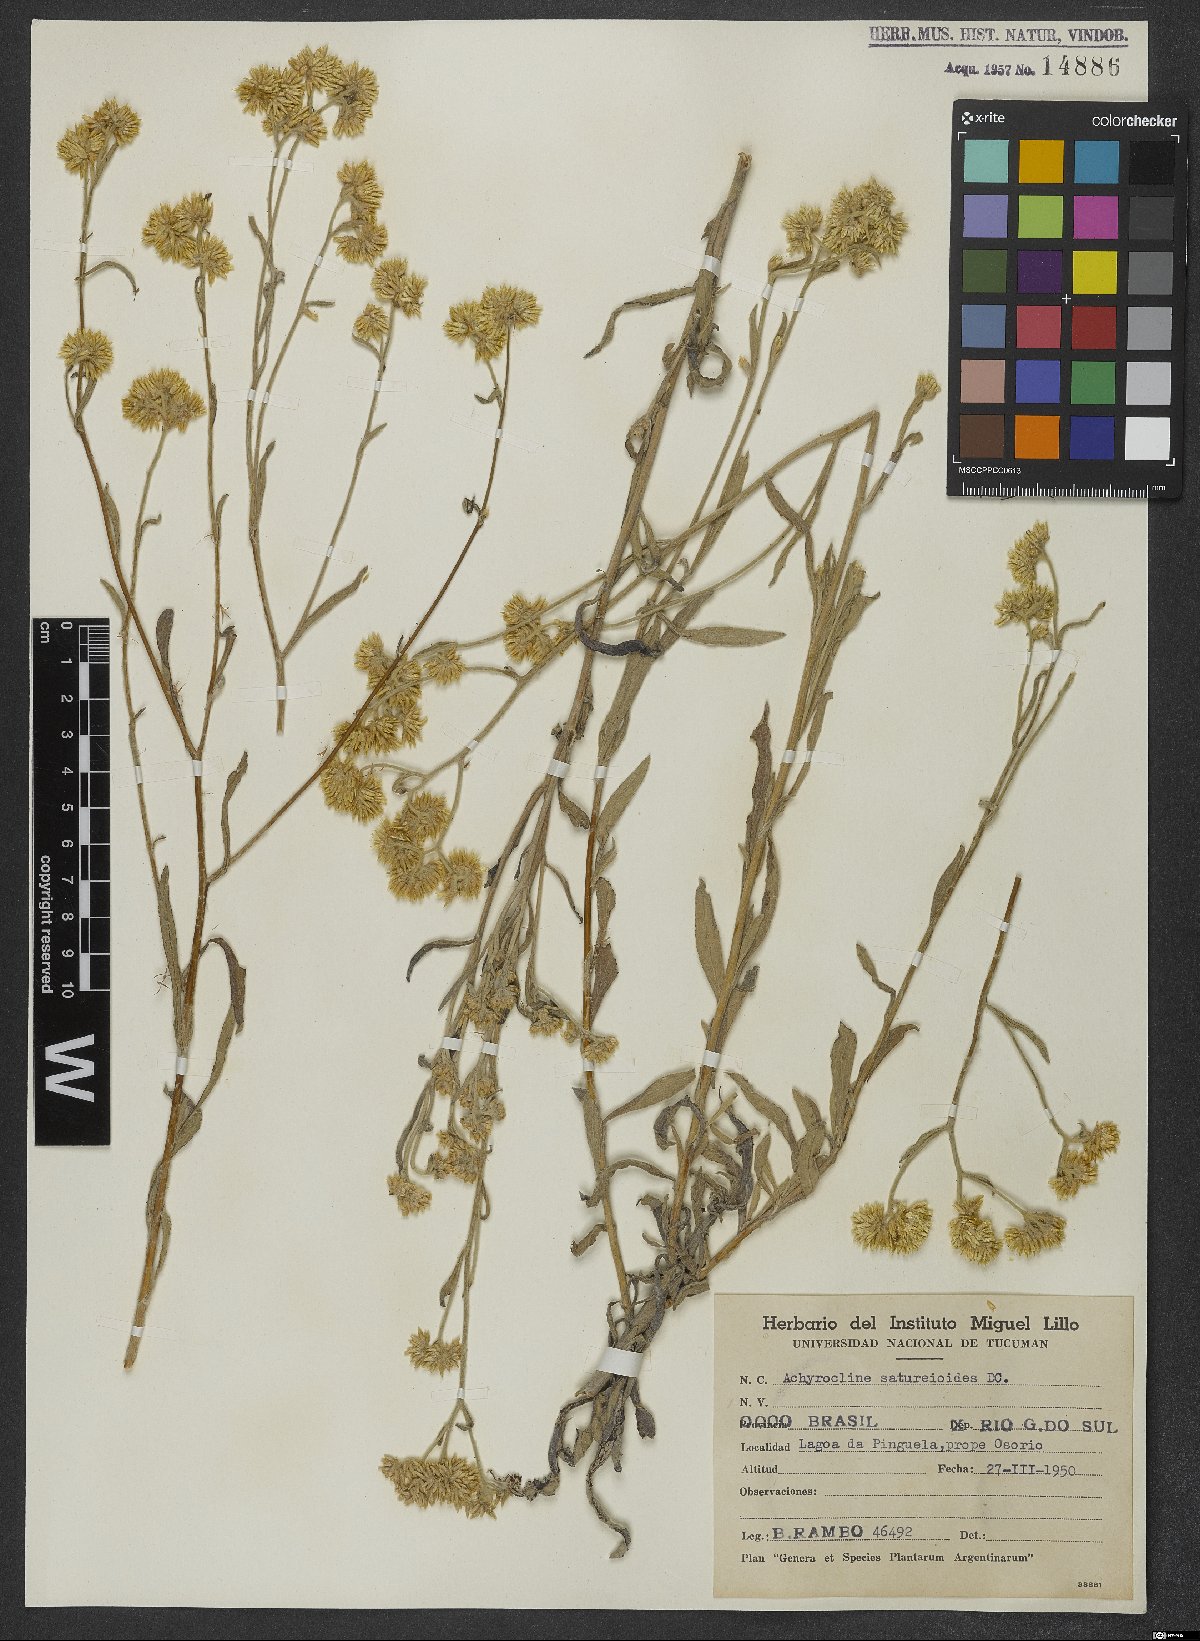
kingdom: Plantae
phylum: Tracheophyta
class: Magnoliopsida
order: Asterales
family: Asteraceae
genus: Achyrocline
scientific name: Achyrocline satureioides
